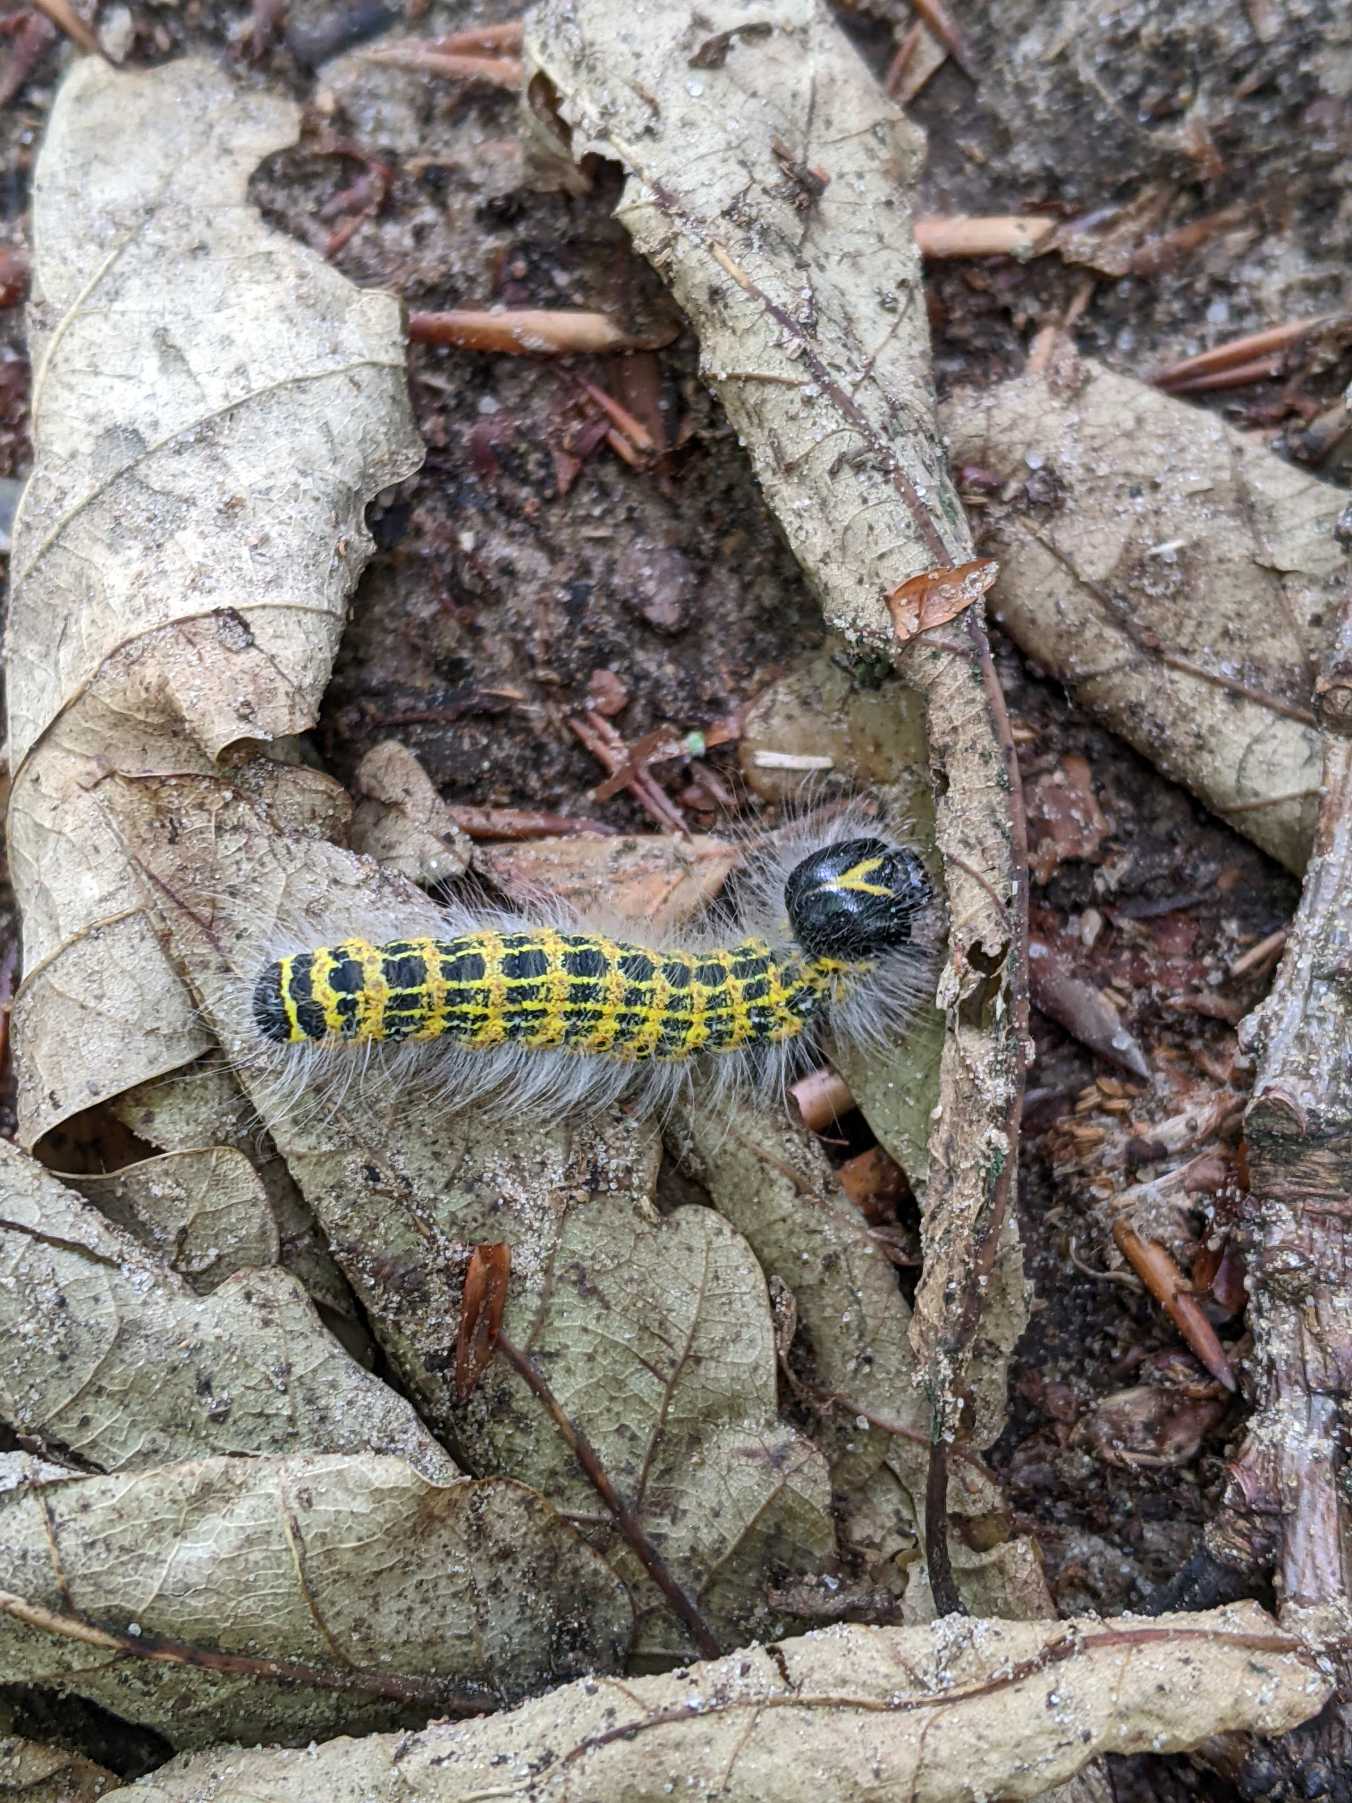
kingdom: Animalia
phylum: Arthropoda
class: Insecta
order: Lepidoptera
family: Notodontidae
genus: Phalera
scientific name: Phalera bucephala
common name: Måneplet
